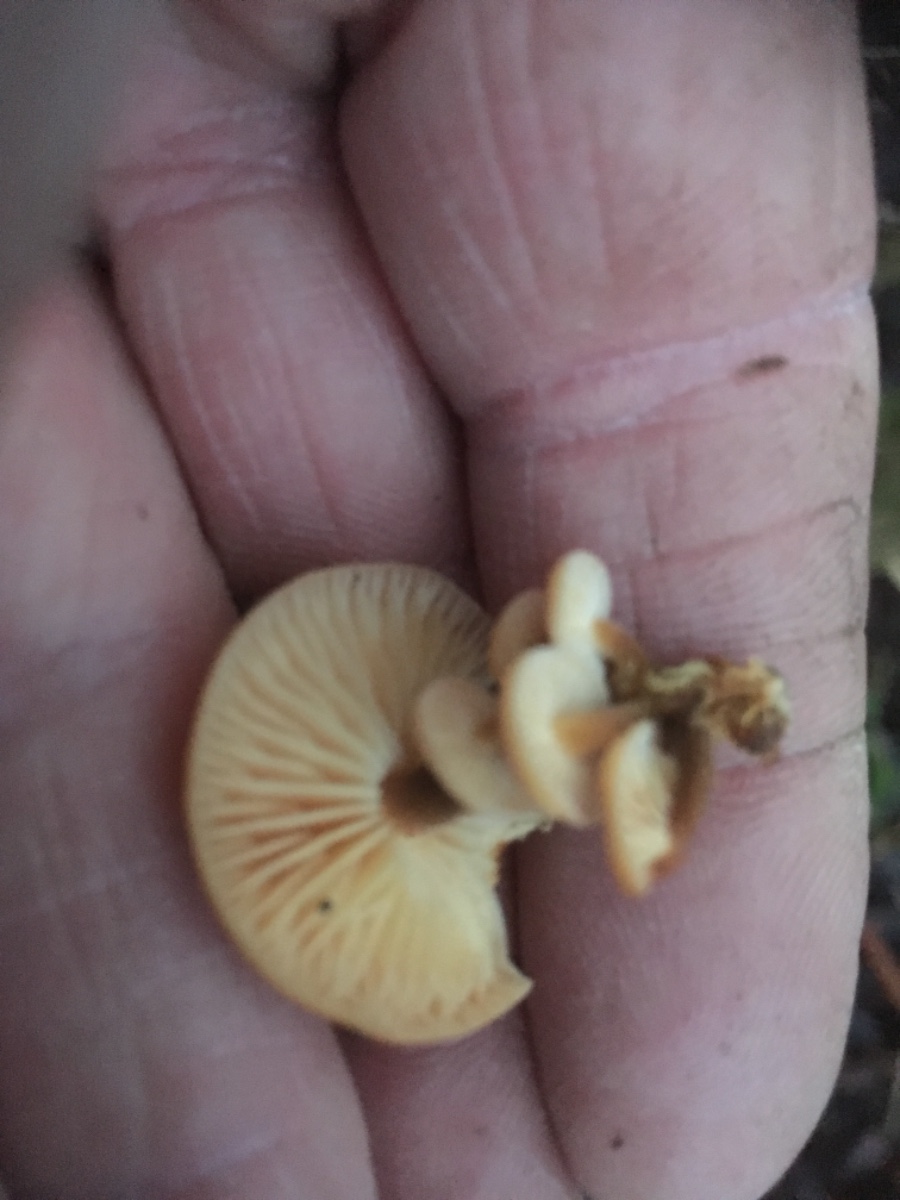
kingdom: Fungi
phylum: Basidiomycota
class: Agaricomycetes
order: Agaricales
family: Physalacriaceae
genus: Flammulina
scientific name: Flammulina velutipes
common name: gul fløjlsfod
